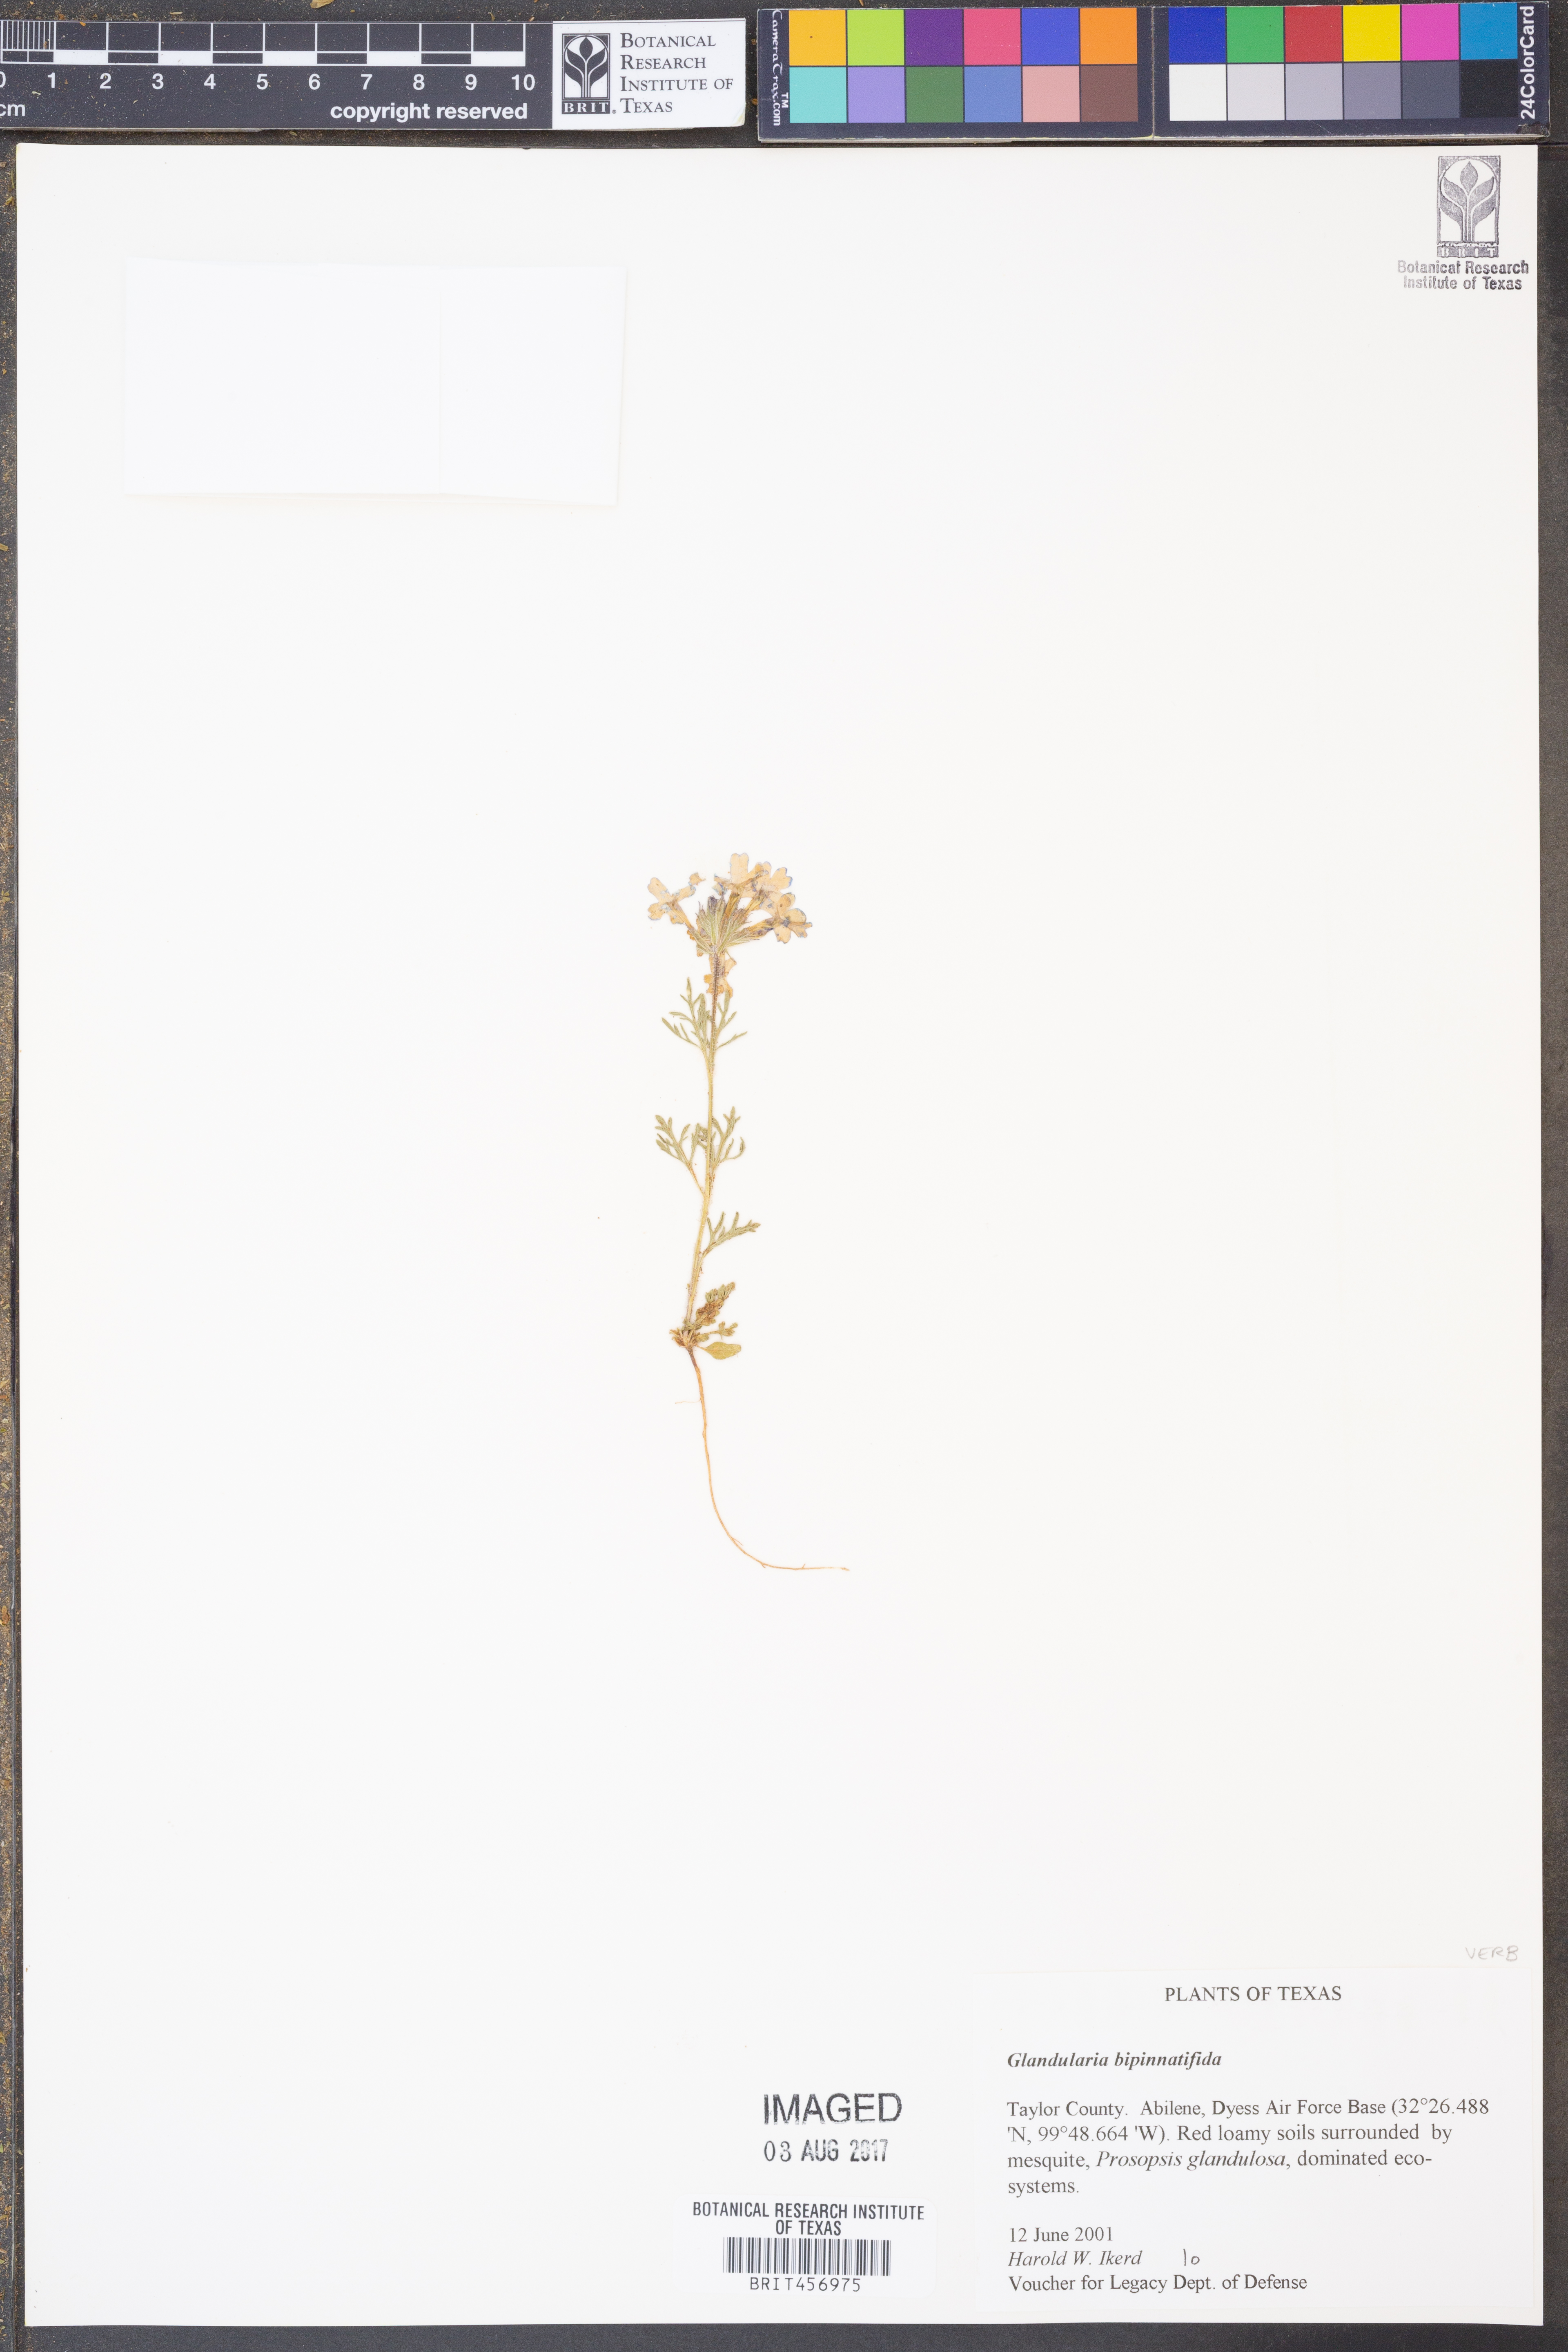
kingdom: Plantae
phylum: Tracheophyta
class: Magnoliopsida
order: Lamiales
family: Verbenaceae
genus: Verbena
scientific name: Verbena bipinnatifida
